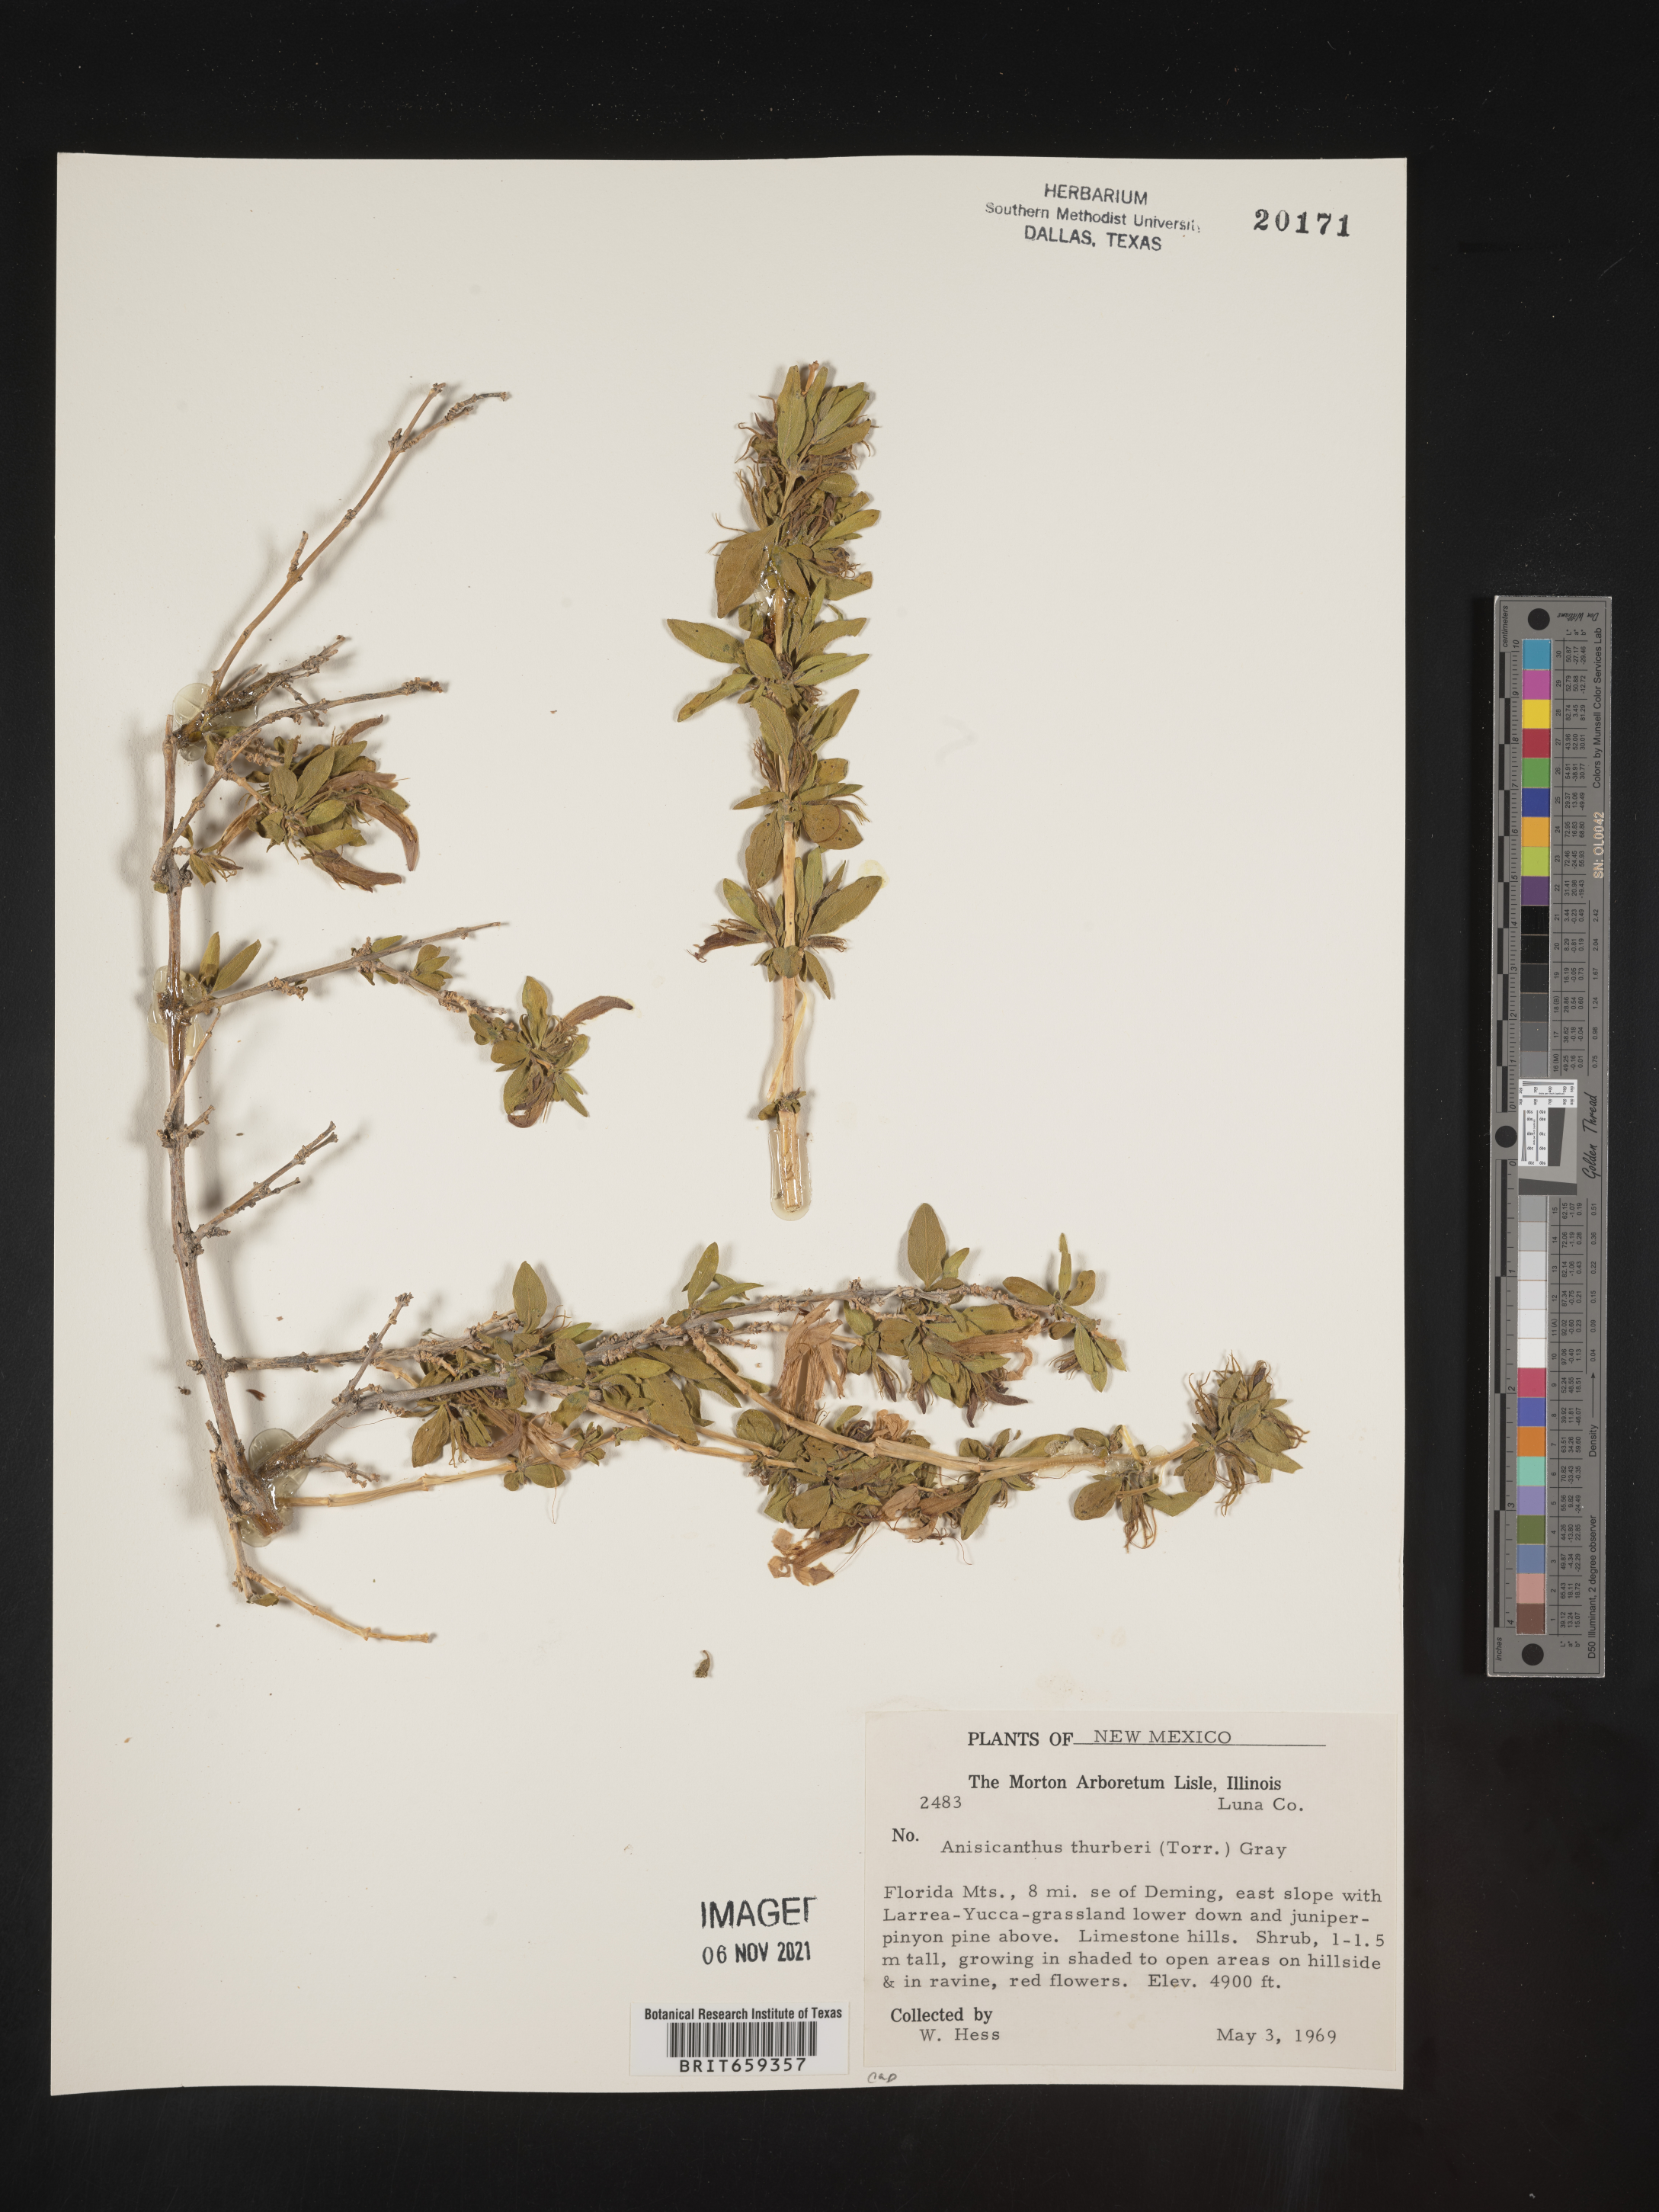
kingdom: Plantae
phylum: Tracheophyta
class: Magnoliopsida
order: Lamiales
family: Acanthaceae
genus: Anisacanthus
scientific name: Anisacanthus
